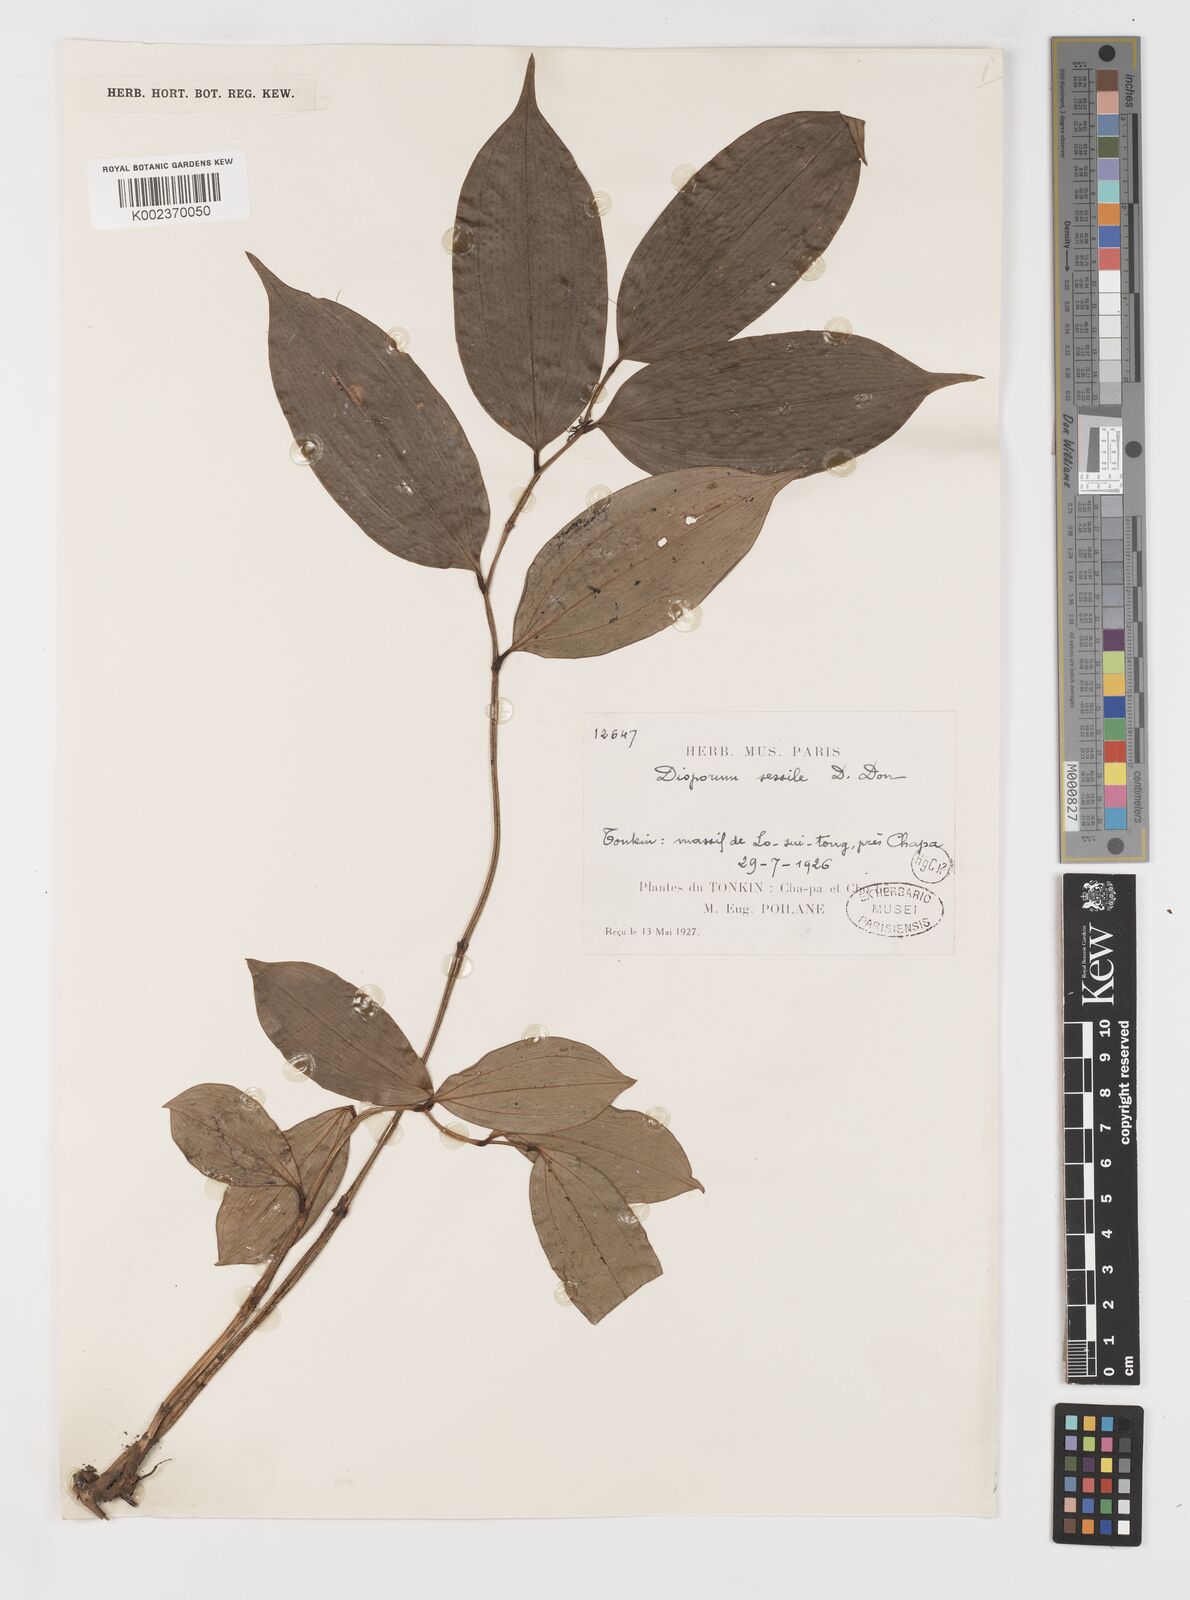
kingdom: Plantae
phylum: Tracheophyta
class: Liliopsida
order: Liliales
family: Colchicaceae
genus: Disporum
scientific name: Disporum sessile
